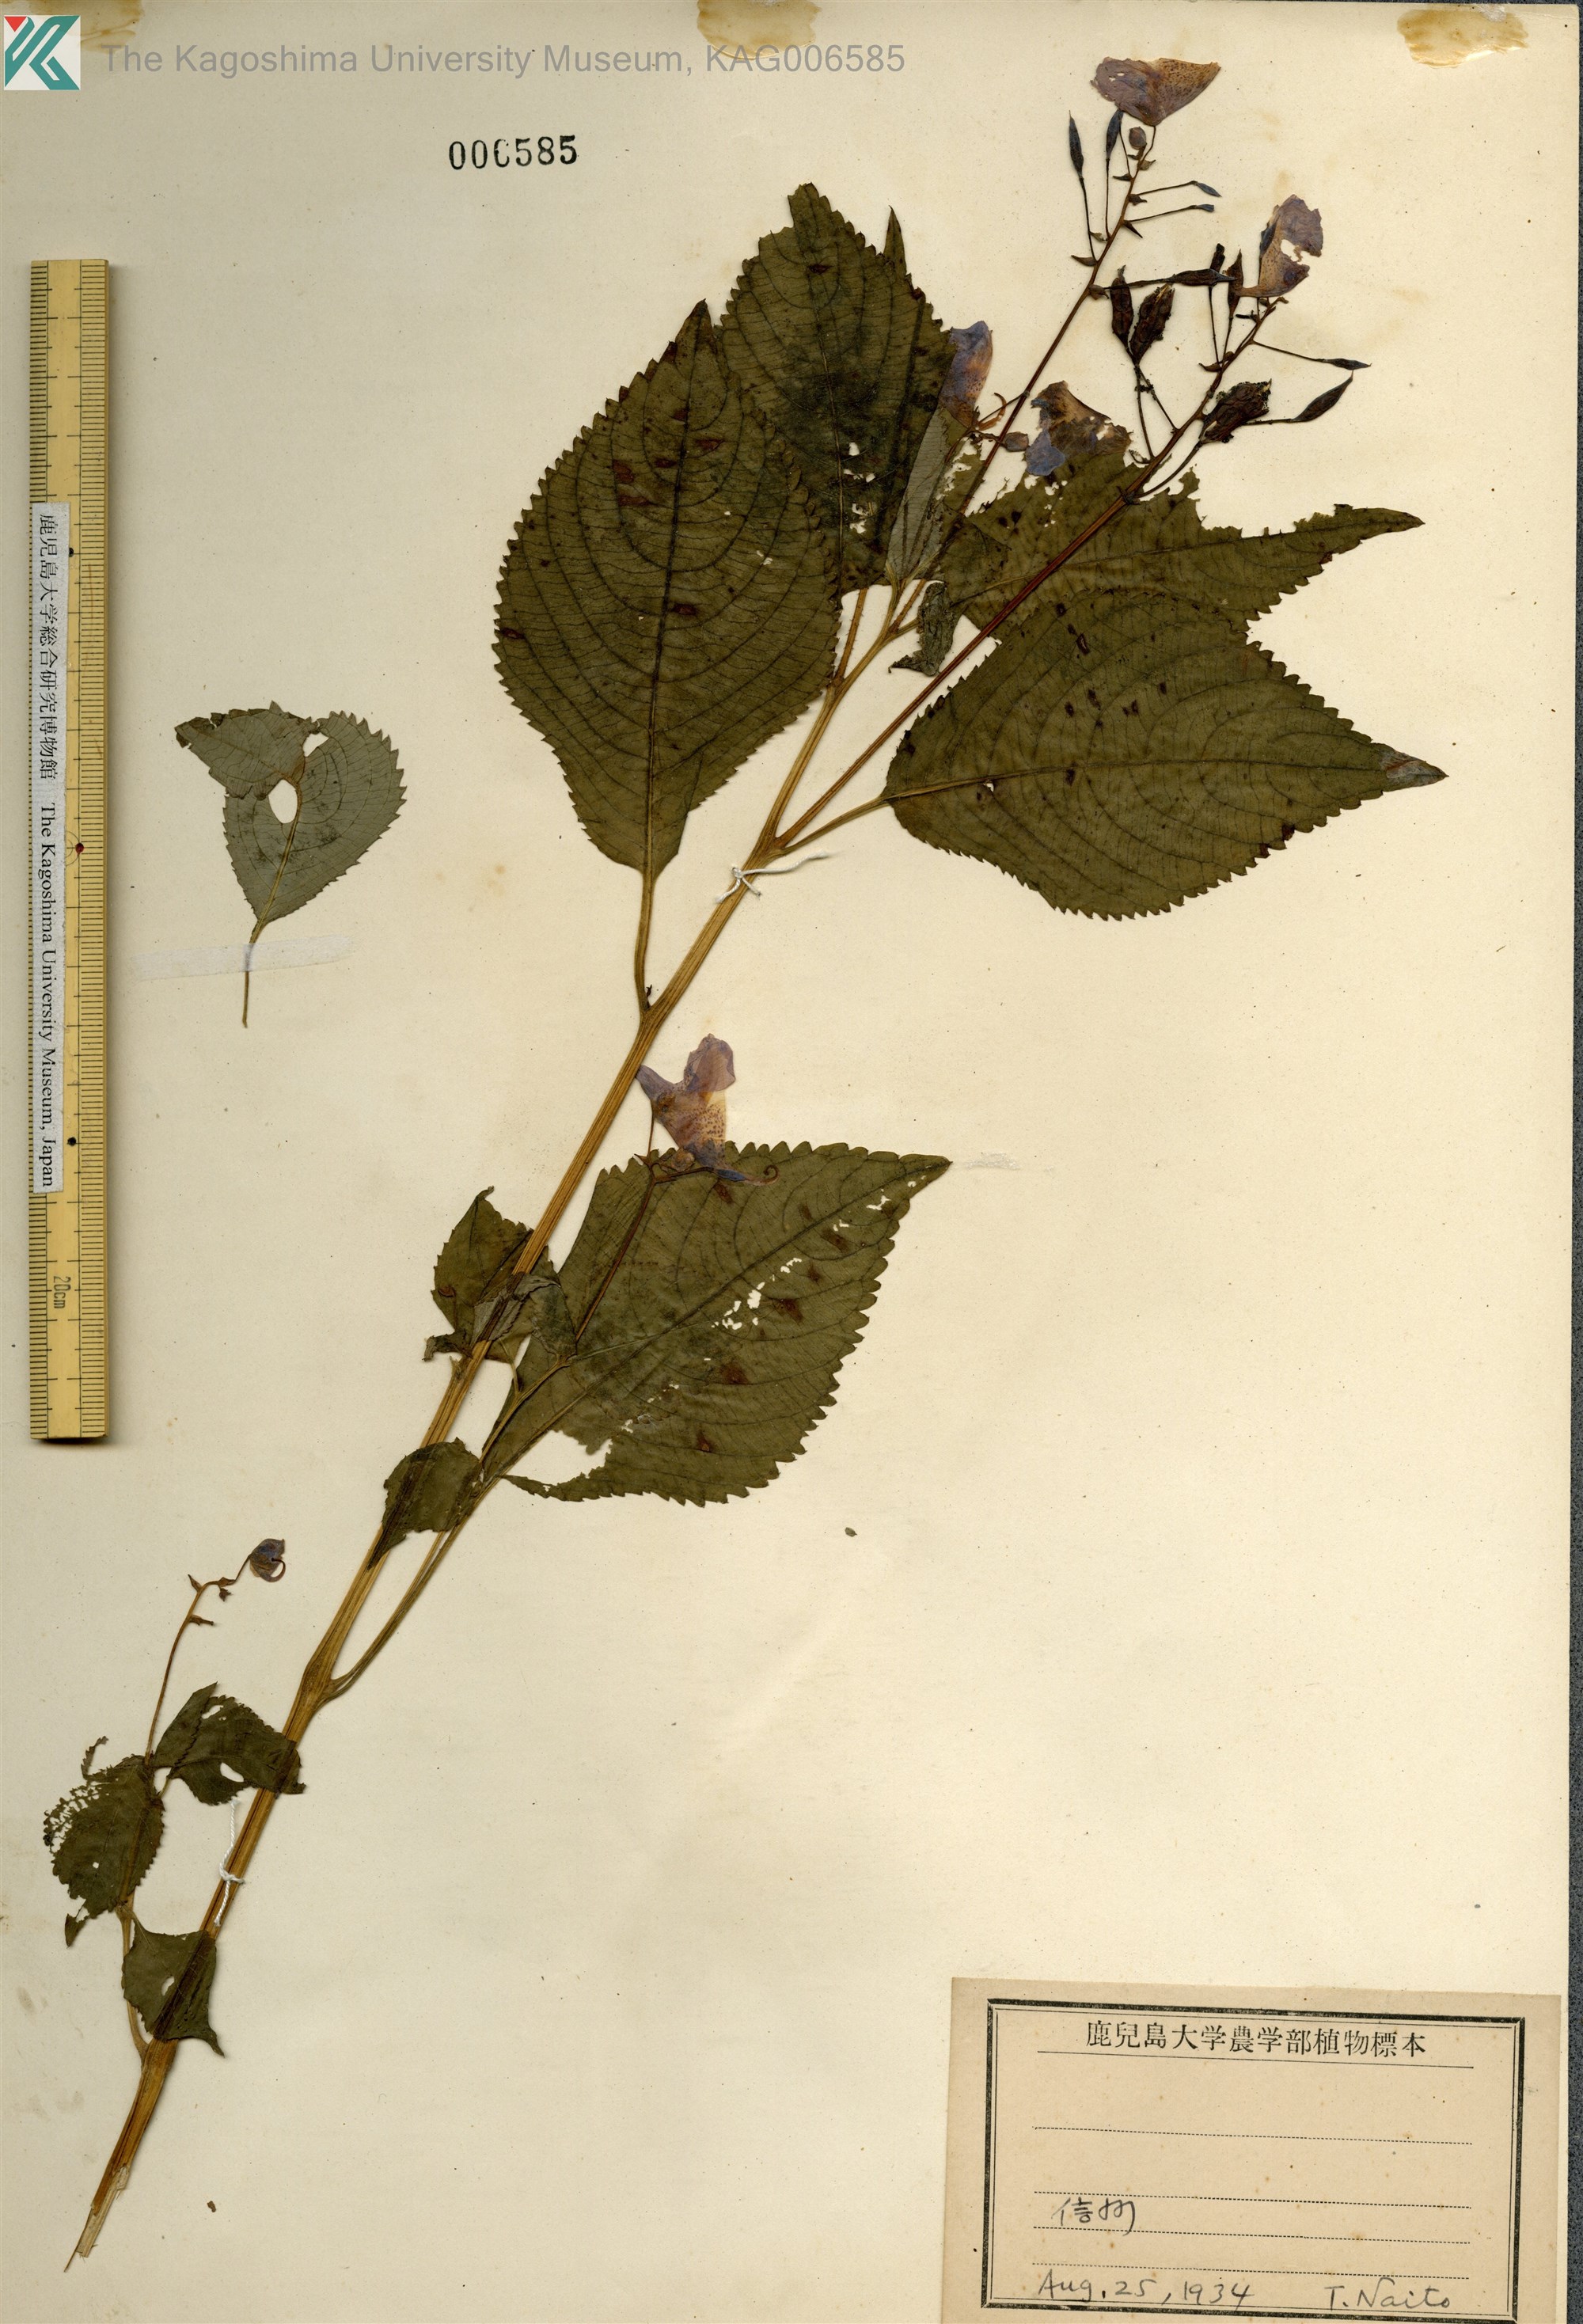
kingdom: Plantae
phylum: Tracheophyta
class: Magnoliopsida
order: Ericales
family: Balsaminaceae
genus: Impatiens
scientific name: Impatiens textorii
